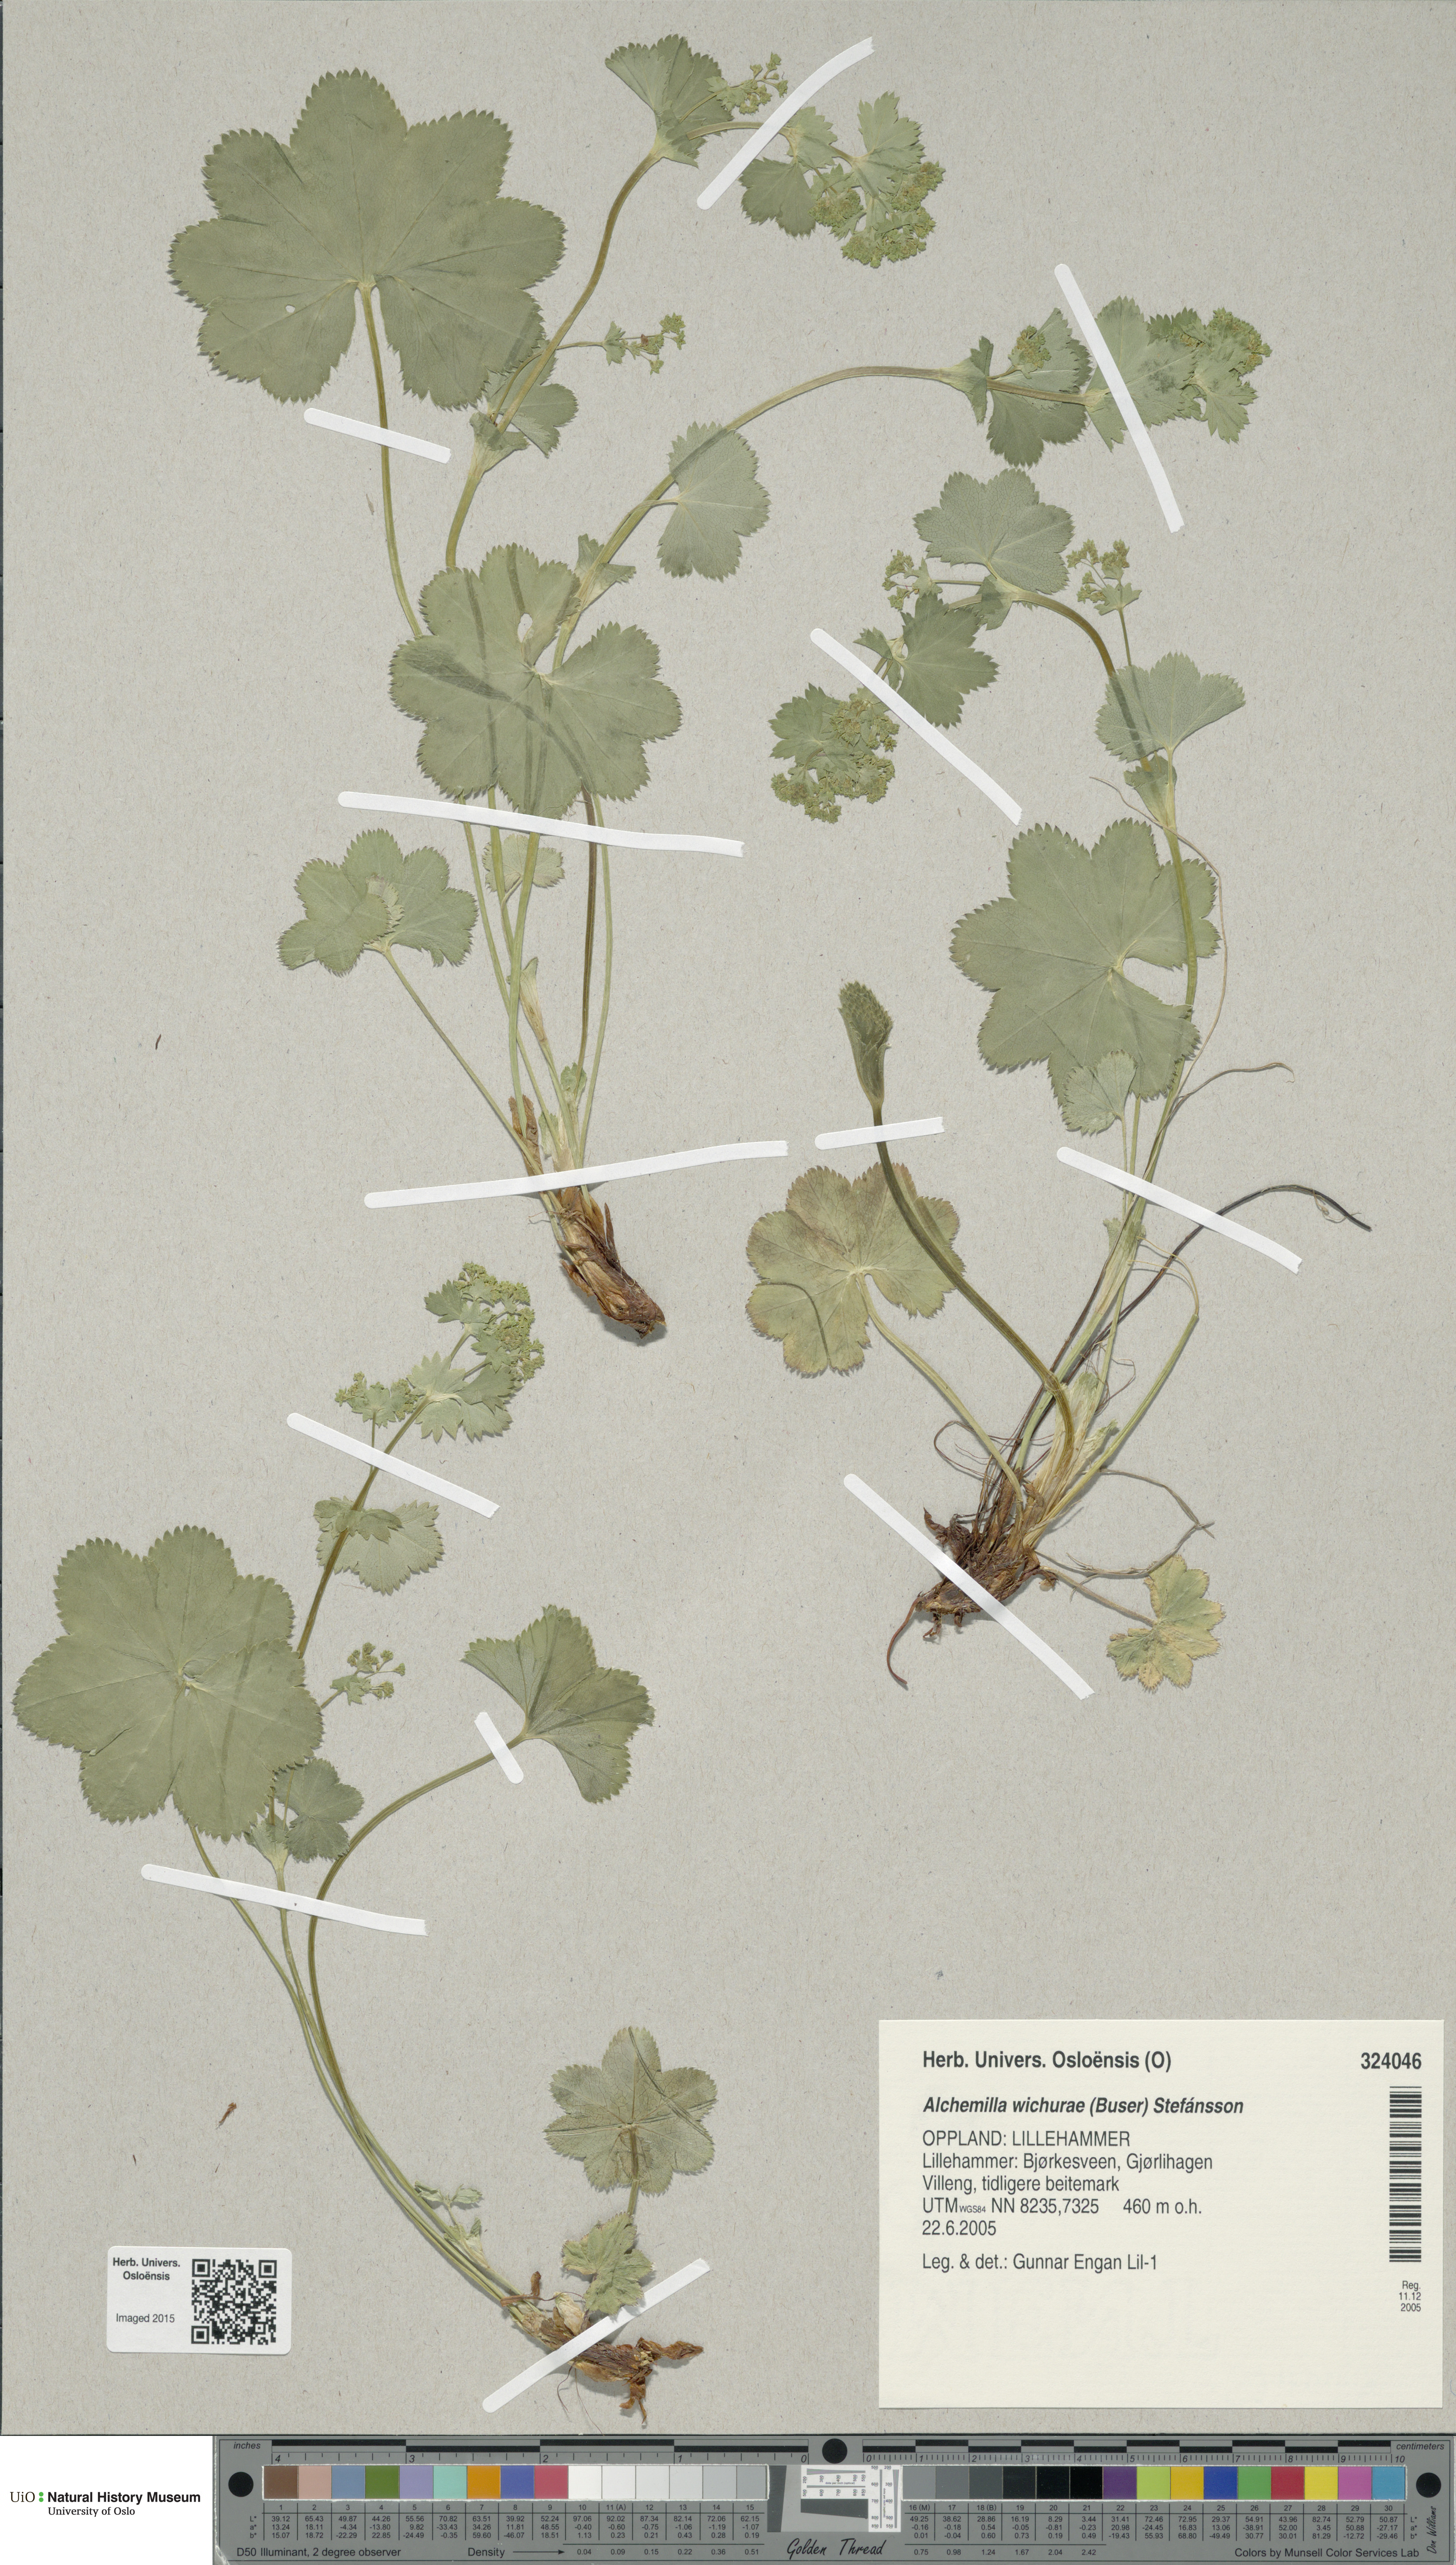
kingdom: Plantae
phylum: Tracheophyta
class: Magnoliopsida
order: Rosales
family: Rosaceae
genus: Alchemilla
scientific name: Alchemilla wichurae
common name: Rock lady's mantle
